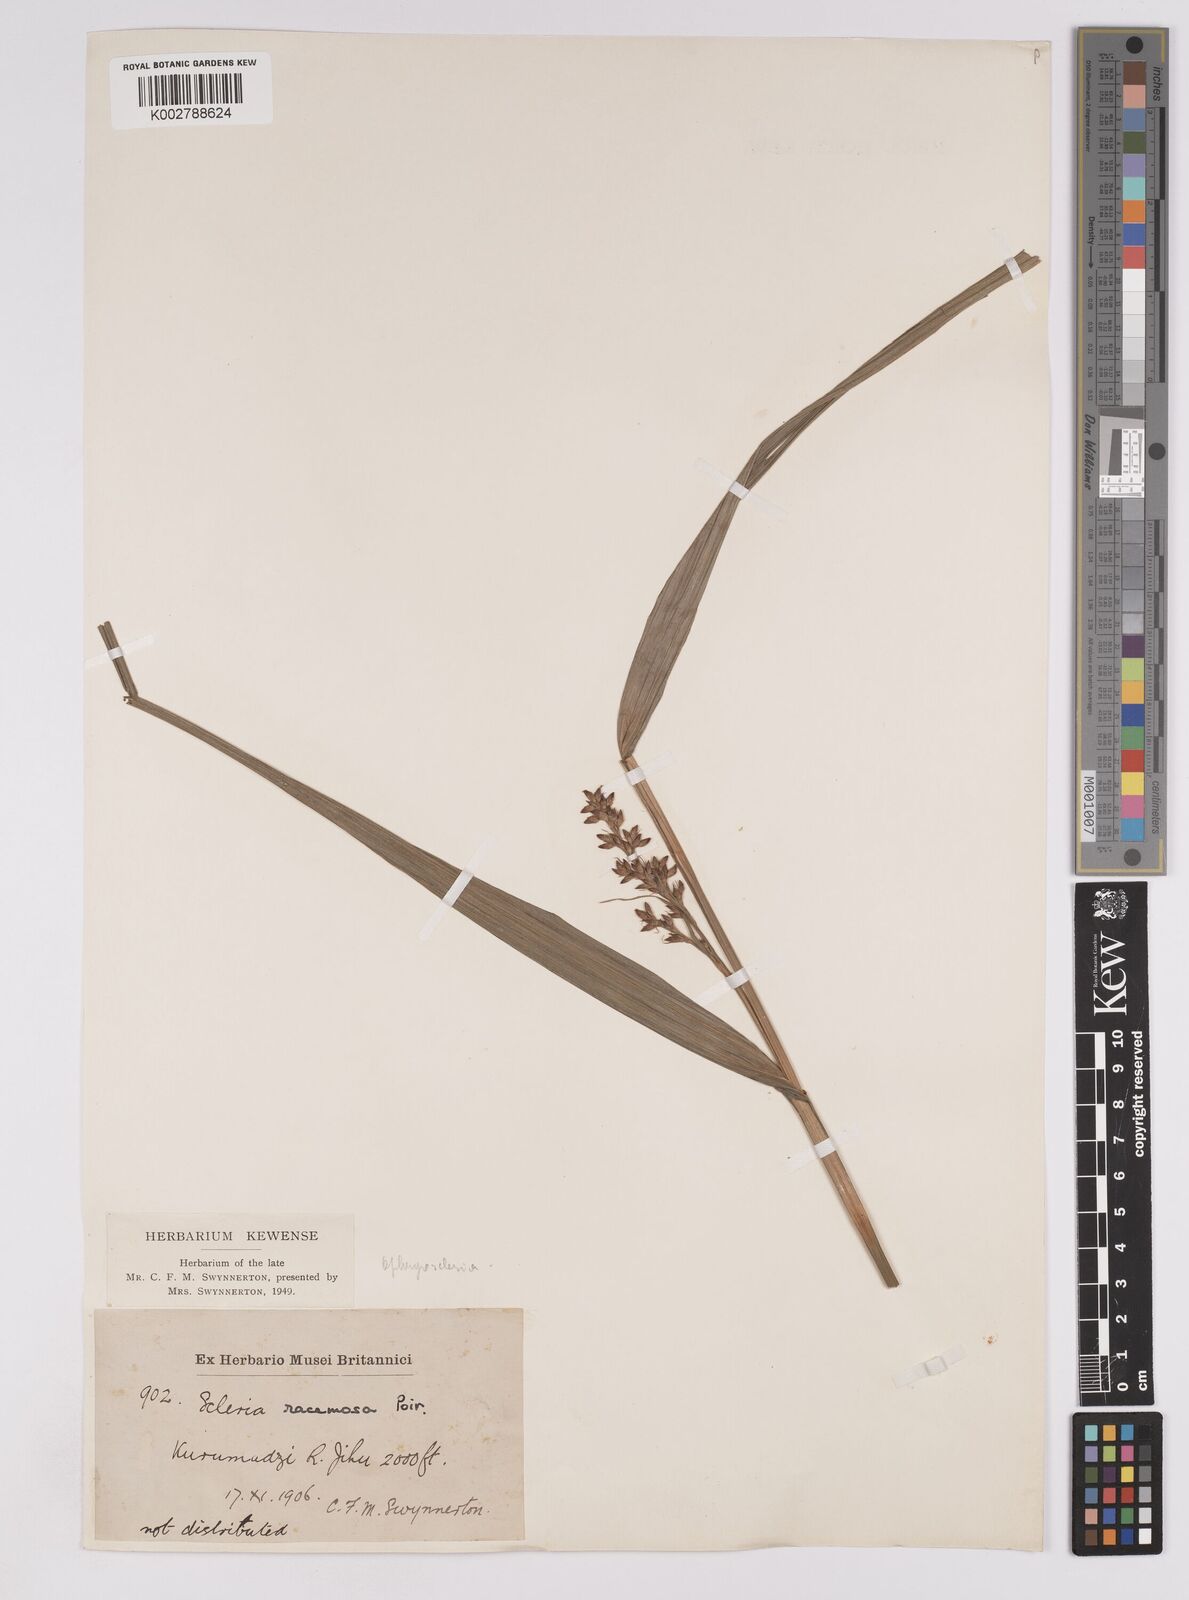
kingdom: Plantae
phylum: Tracheophyta
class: Liliopsida
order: Poales
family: Cyperaceae
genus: Scleria
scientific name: Scleria racemosa
